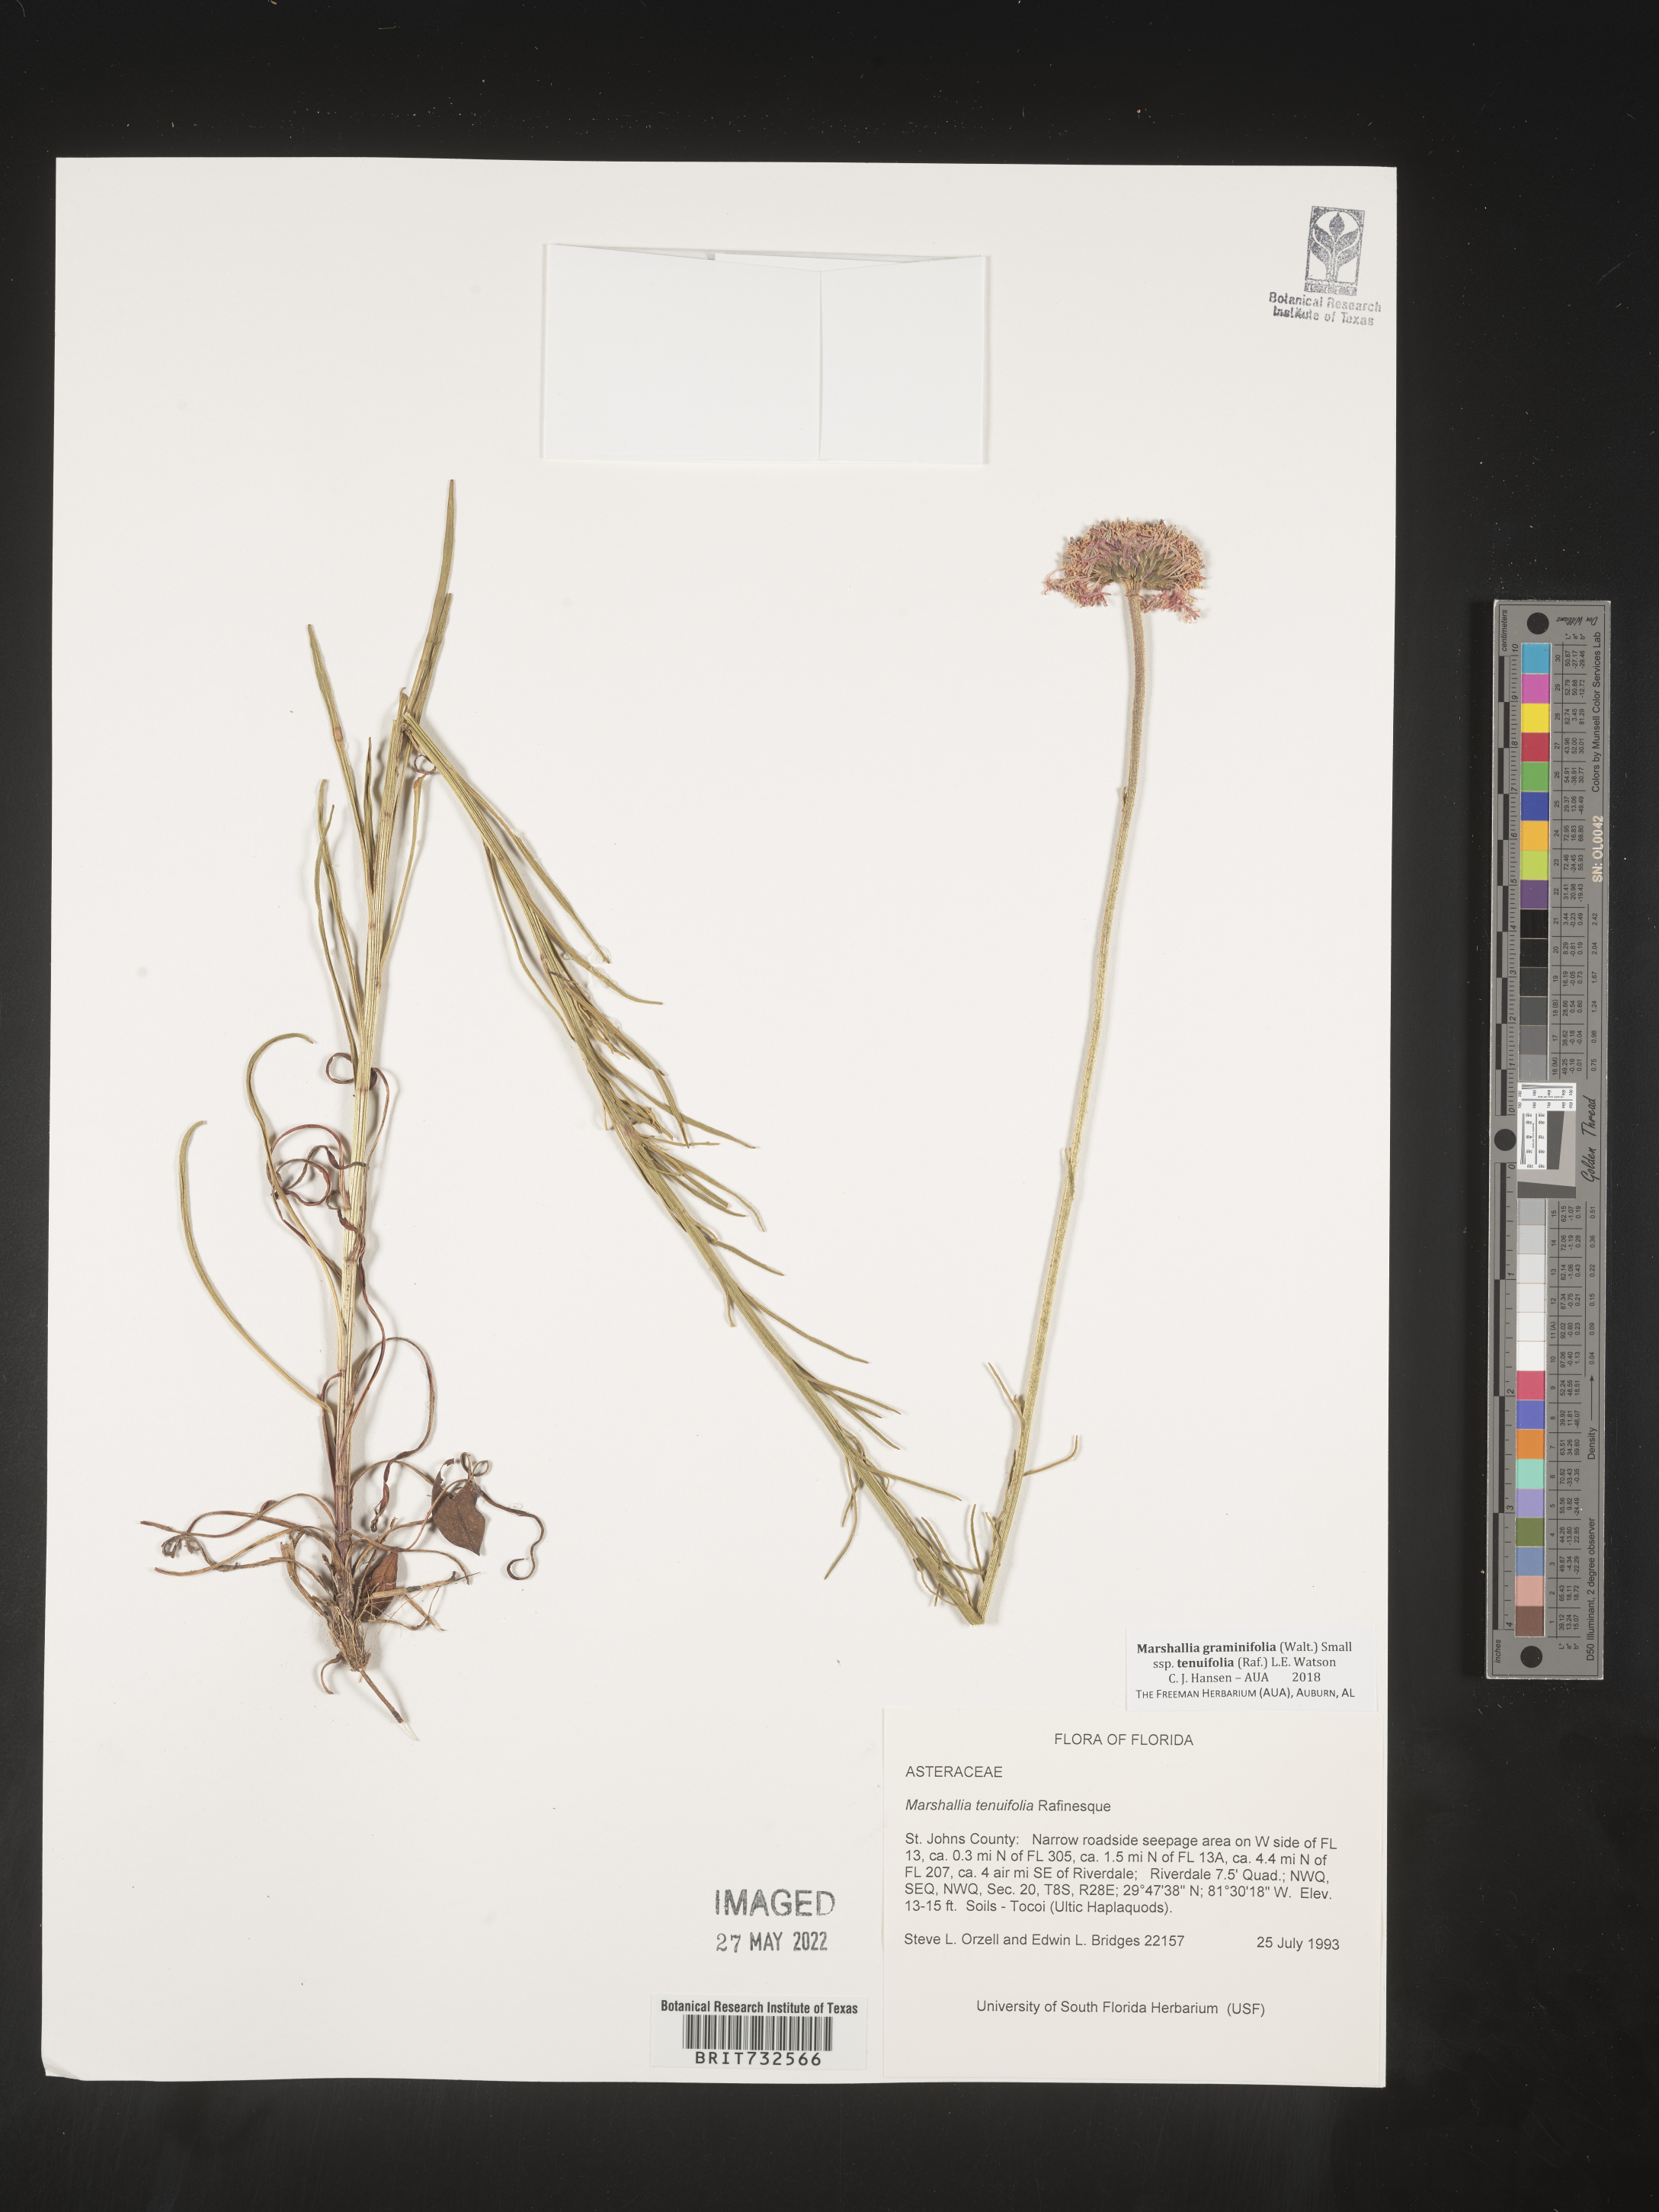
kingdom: Plantae
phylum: Tracheophyta
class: Magnoliopsida
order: Asterales
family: Asteraceae
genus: Marshallia
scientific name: Marshallia graminifolia
